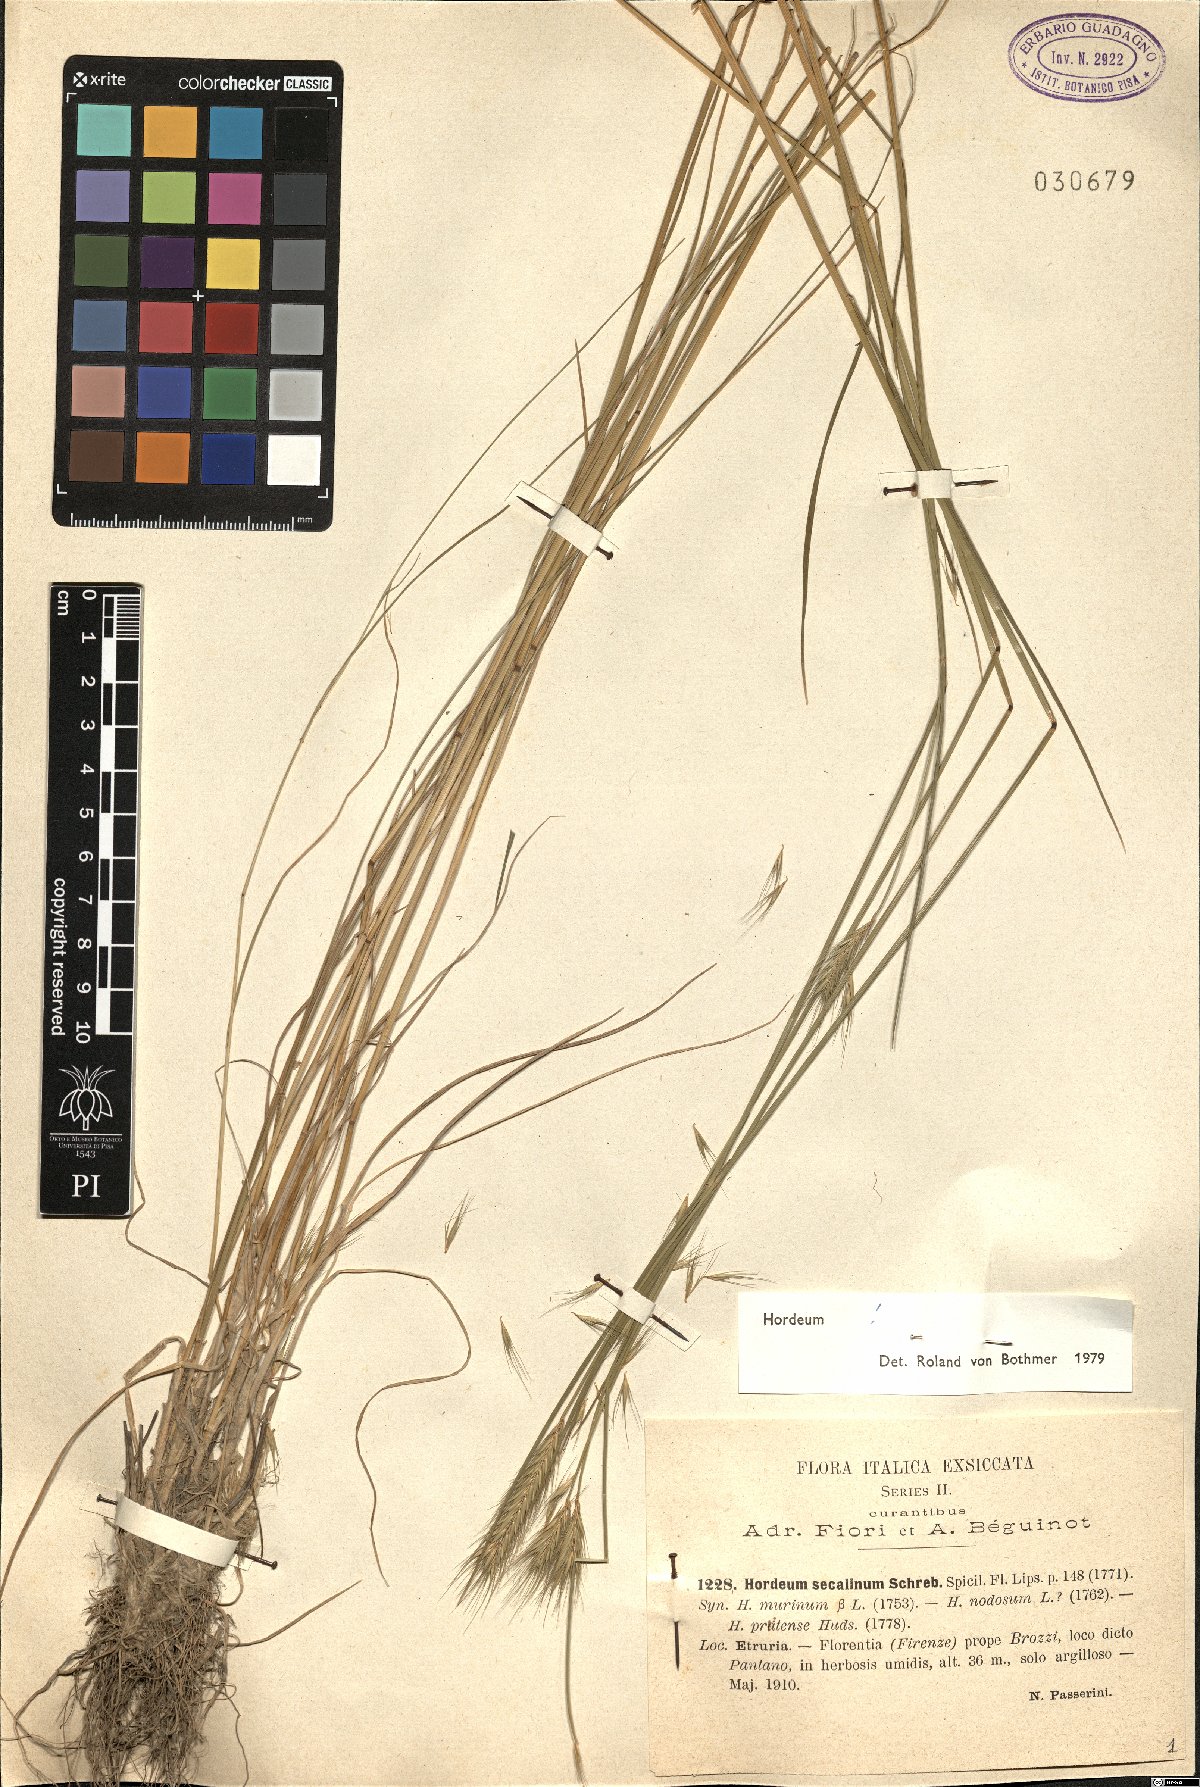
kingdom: Plantae
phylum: Tracheophyta
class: Liliopsida
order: Poales
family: Poaceae
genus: Hordeum
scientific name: Hordeum secalinum
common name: Meadow barley
